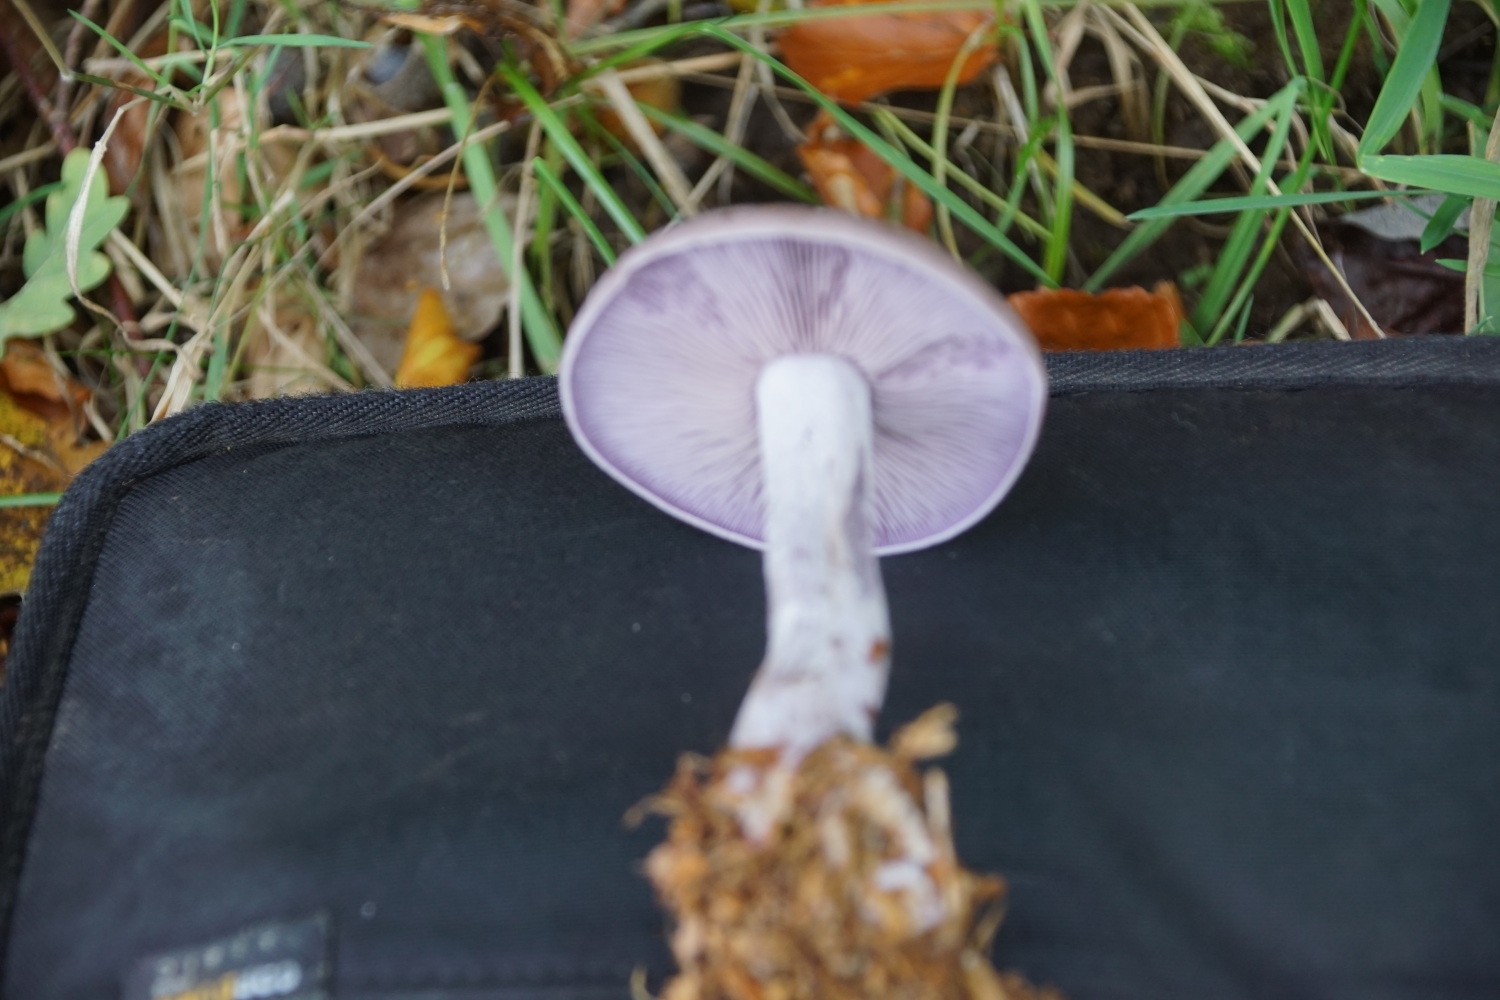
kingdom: Fungi
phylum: Basidiomycota
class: Agaricomycetes
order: Agaricales
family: Tricholomataceae
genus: Lepista
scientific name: Lepista nuda
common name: violet hekseringshat
